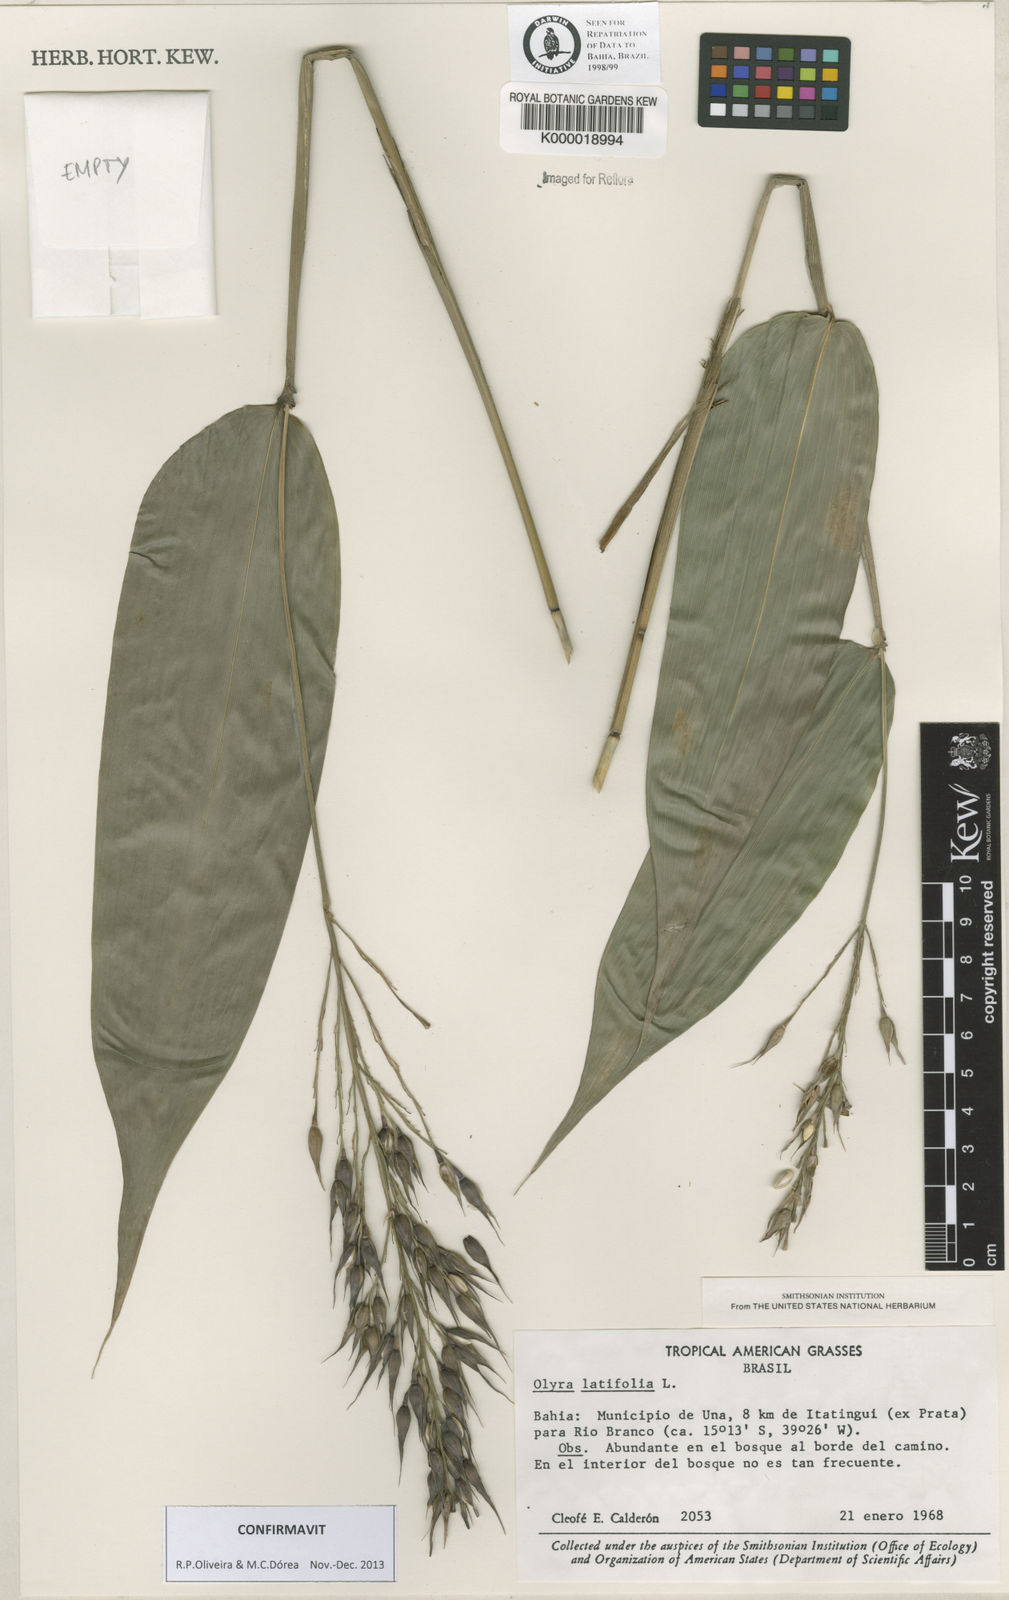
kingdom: Plantae
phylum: Tracheophyta
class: Liliopsida
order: Poales
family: Poaceae
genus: Olyra
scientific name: Olyra latifolia
